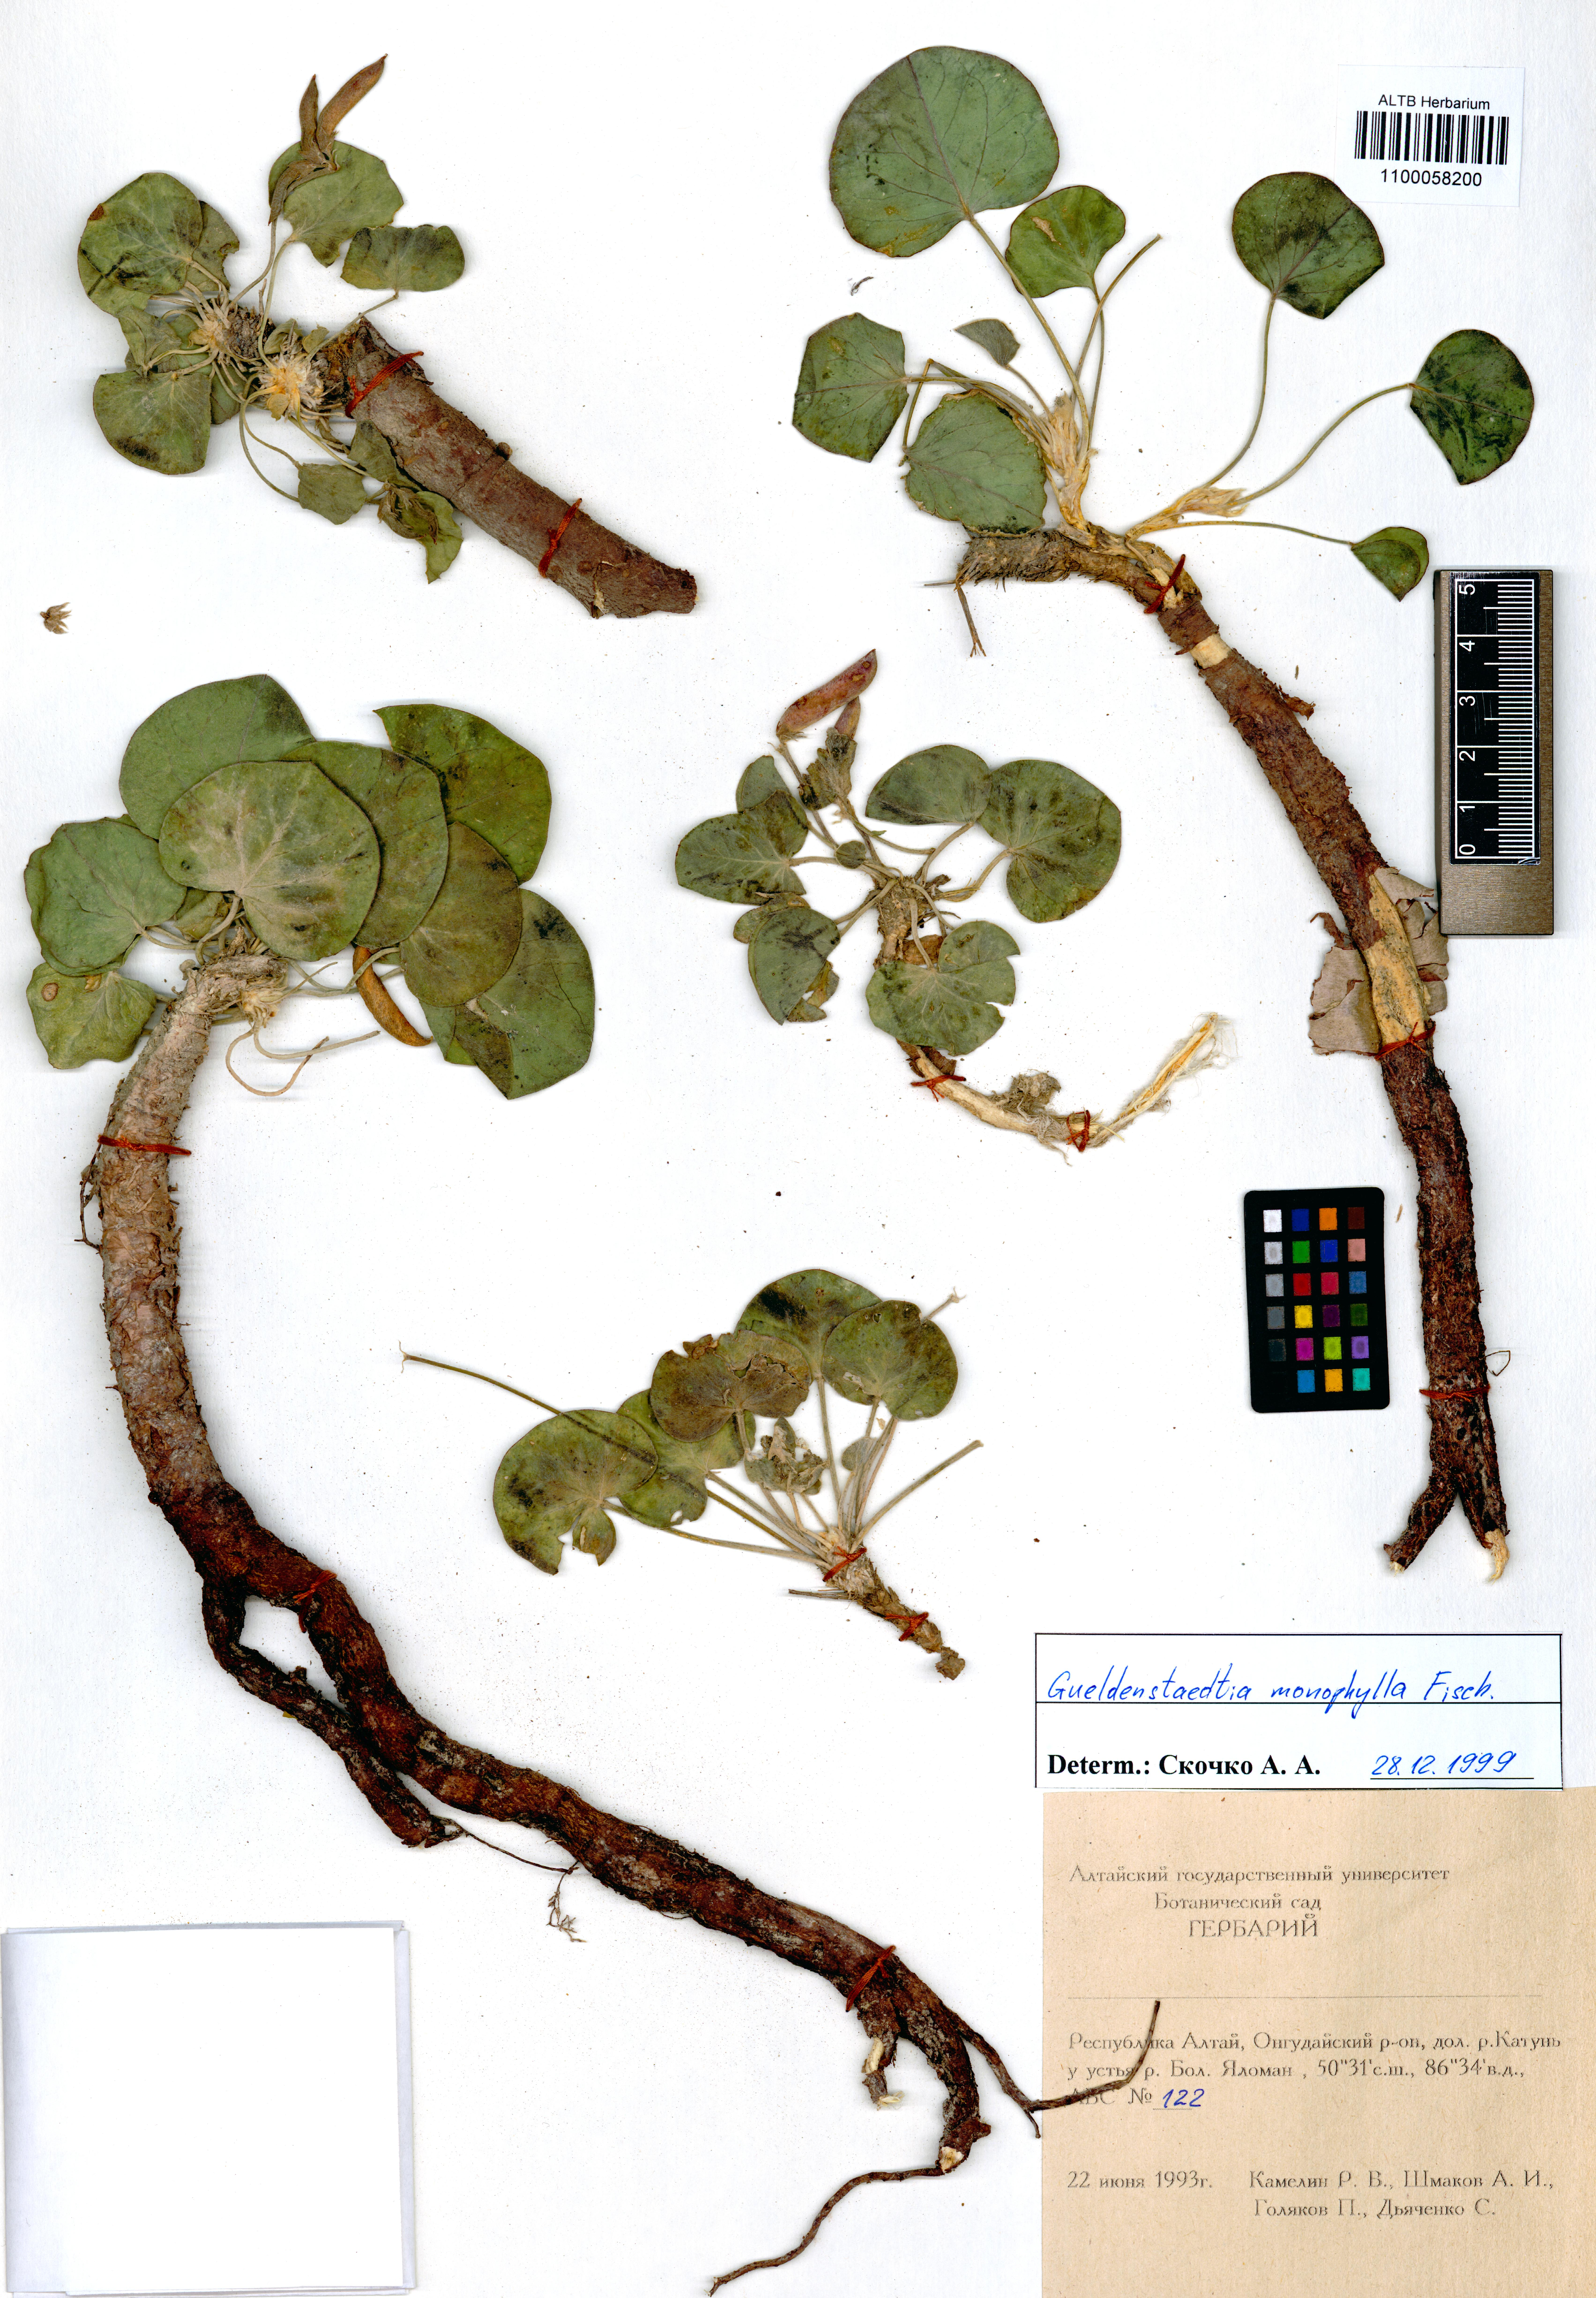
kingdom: Plantae
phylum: Tracheophyta
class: Magnoliopsida
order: Fabales
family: Fabaceae
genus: Gueldenstaedtia
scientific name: Gueldenstaedtia monophylla
